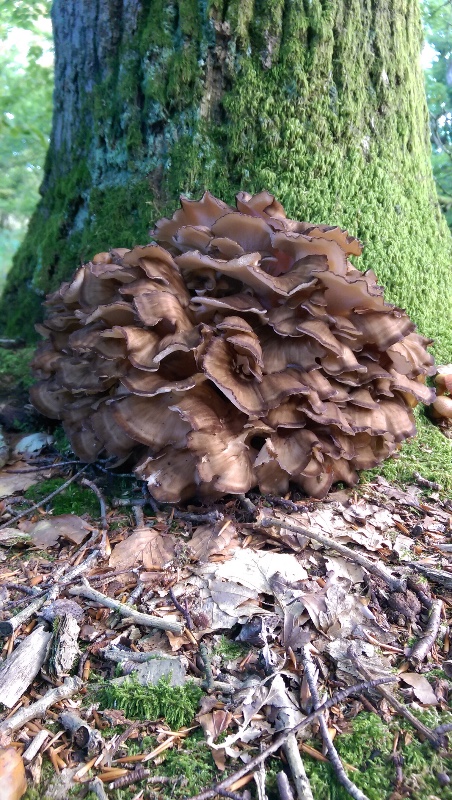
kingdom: Fungi
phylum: Basidiomycota
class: Agaricomycetes
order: Polyporales
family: Grifolaceae
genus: Grifola
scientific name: Grifola frondosa
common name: tueporesvamp
